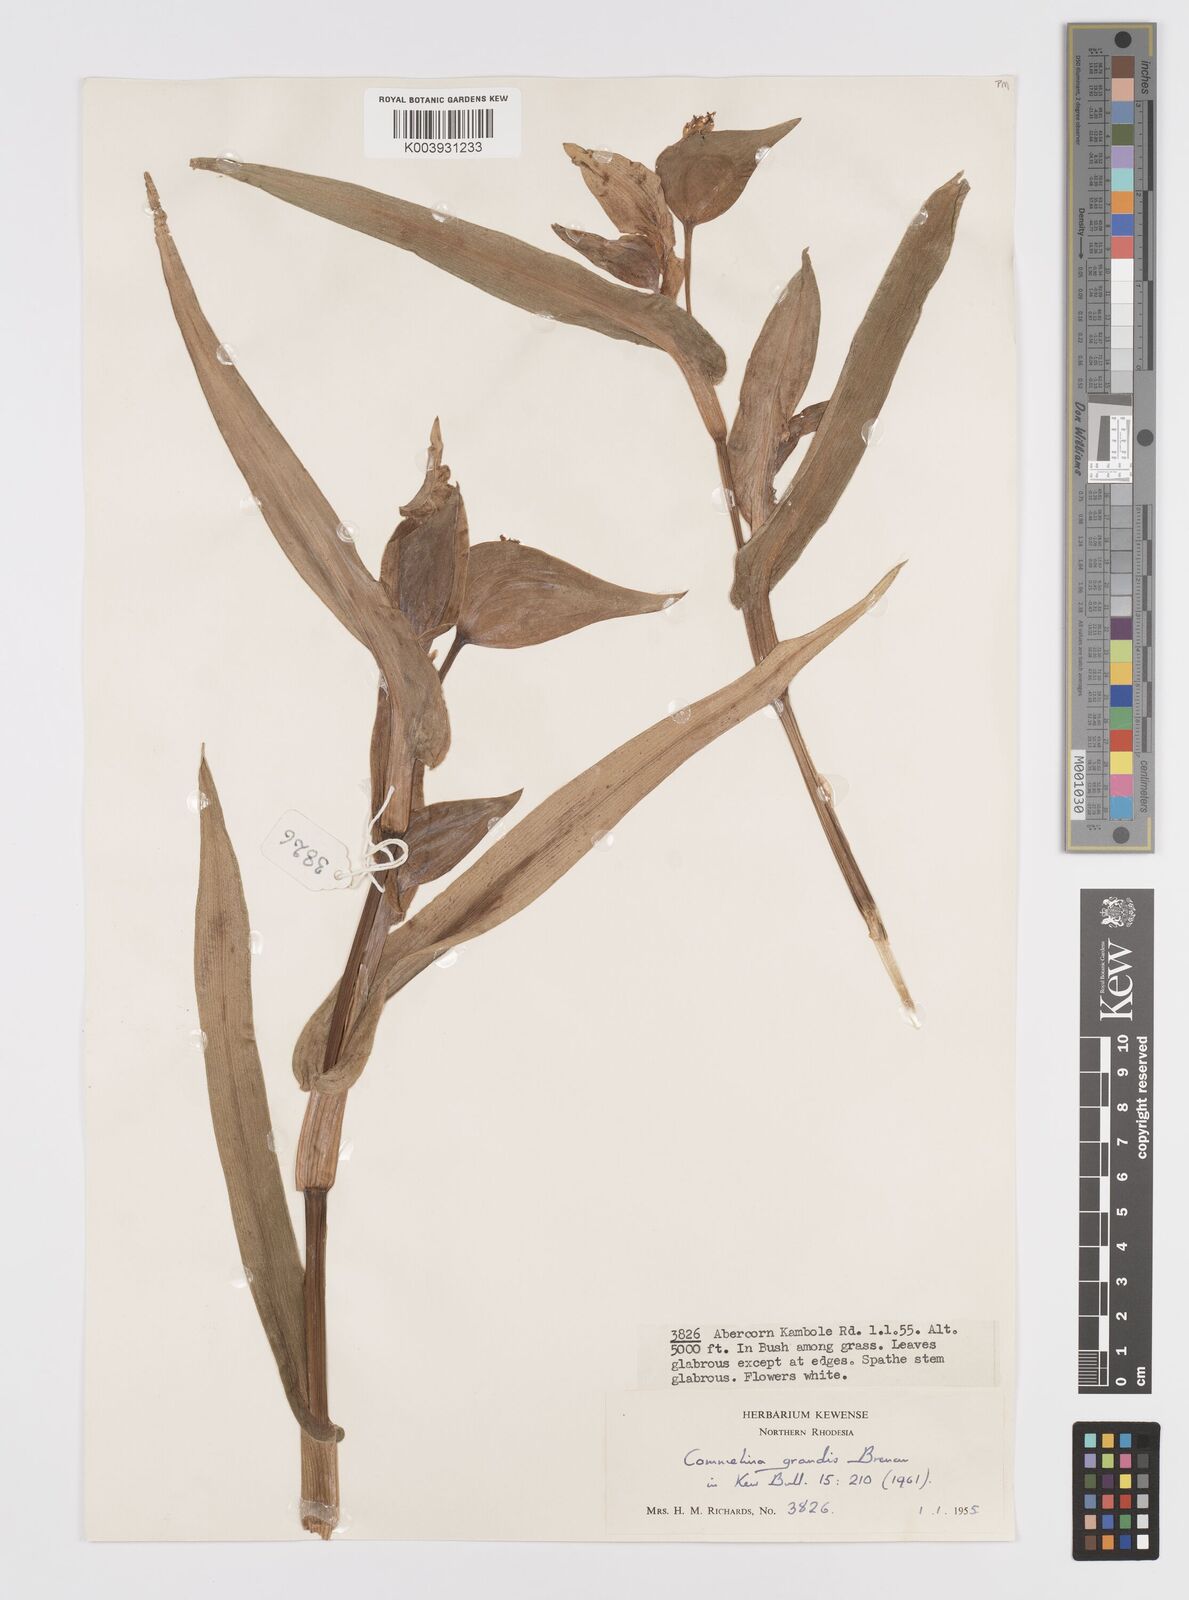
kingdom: Plantae
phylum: Tracheophyta
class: Liliopsida
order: Commelinales
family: Commelinaceae
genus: Commelina
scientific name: Commelina grandis
